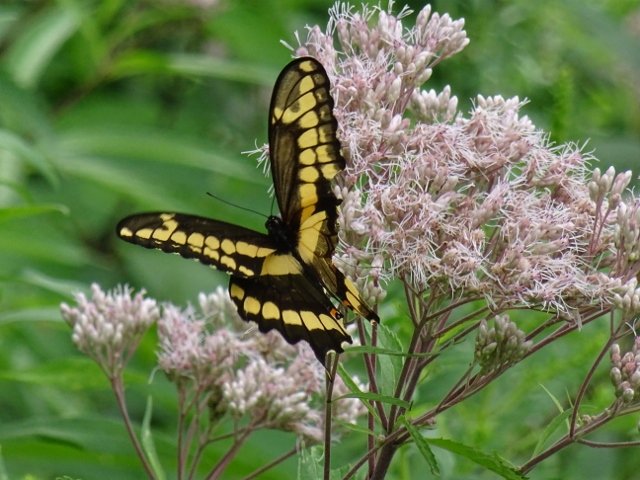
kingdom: Animalia
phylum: Arthropoda
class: Insecta
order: Lepidoptera
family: Papilionidae
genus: Papilio
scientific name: Papilio cresphontes
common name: Eastern Giant Swallowtail
